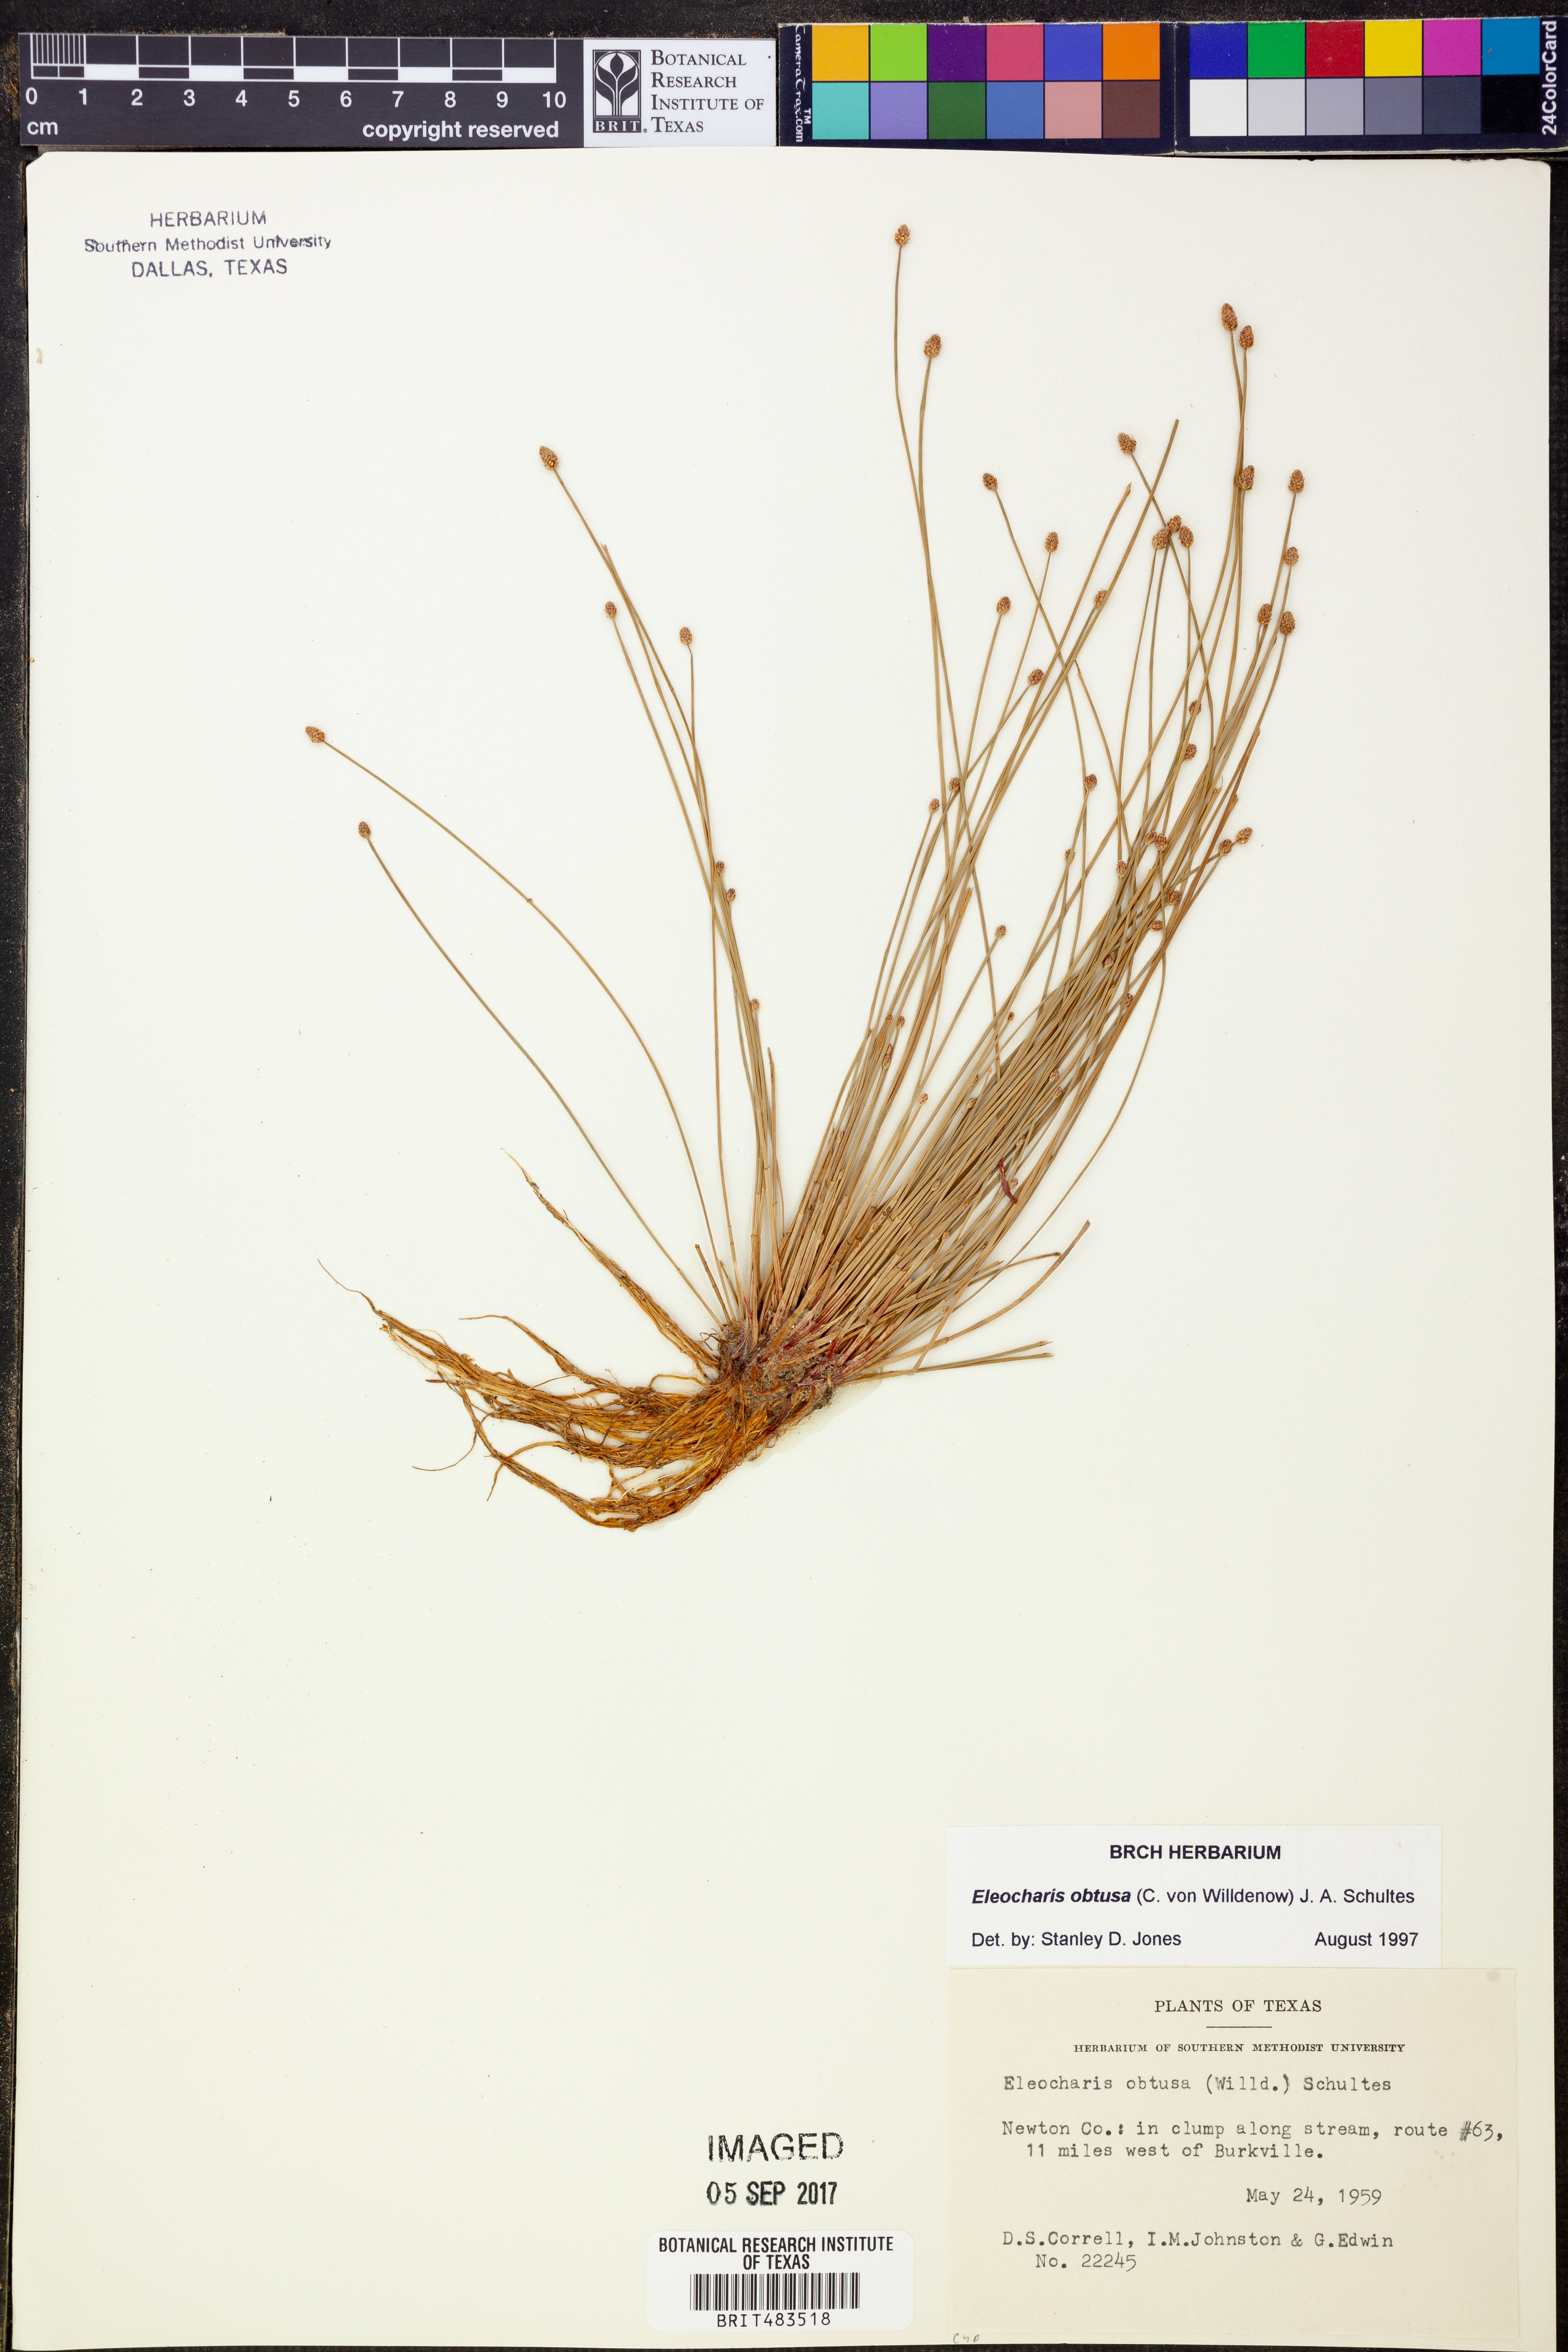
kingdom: Plantae
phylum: Tracheophyta
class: Liliopsida
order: Poales
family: Cyperaceae
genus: Eleocharis
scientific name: Eleocharis obtusa
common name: Blunt spikerush
